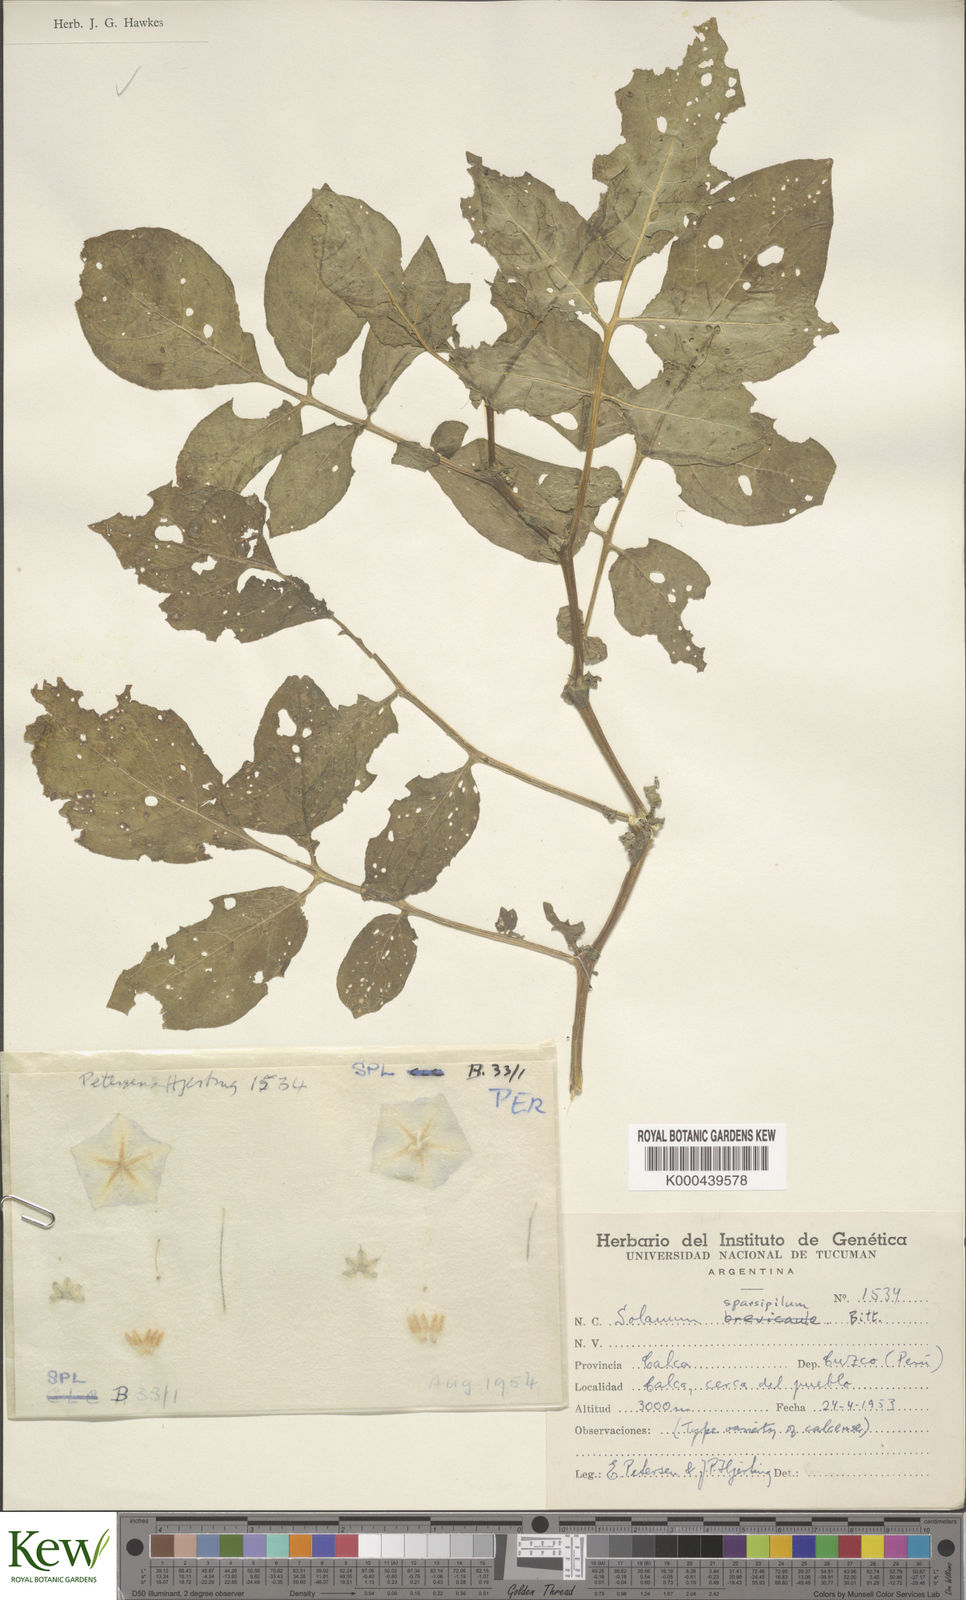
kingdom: Plantae
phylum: Tracheophyta
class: Magnoliopsida
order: Solanales
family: Solanaceae
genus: Solanum
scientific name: Solanum brevicaule
